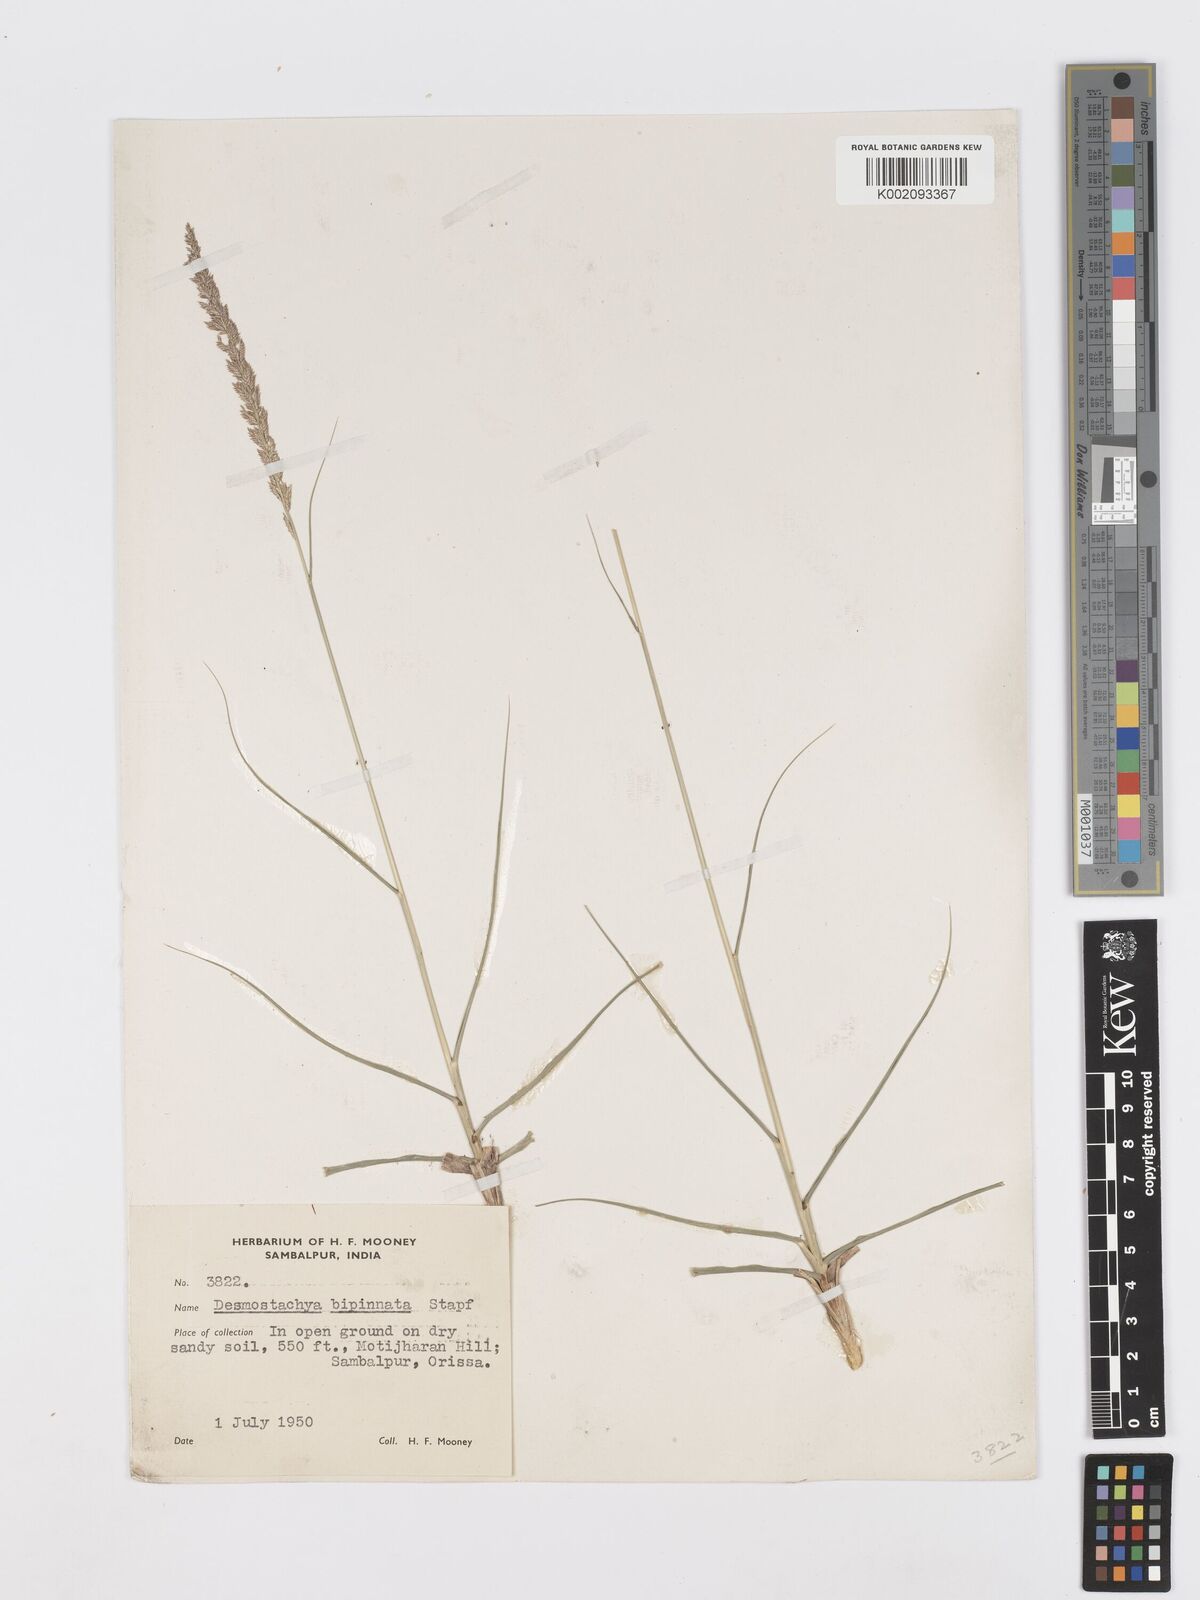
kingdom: Plantae
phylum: Tracheophyta
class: Liliopsida
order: Poales
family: Poaceae
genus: Desmostachya
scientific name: Desmostachya bipinnata
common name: Crowfoot grass
